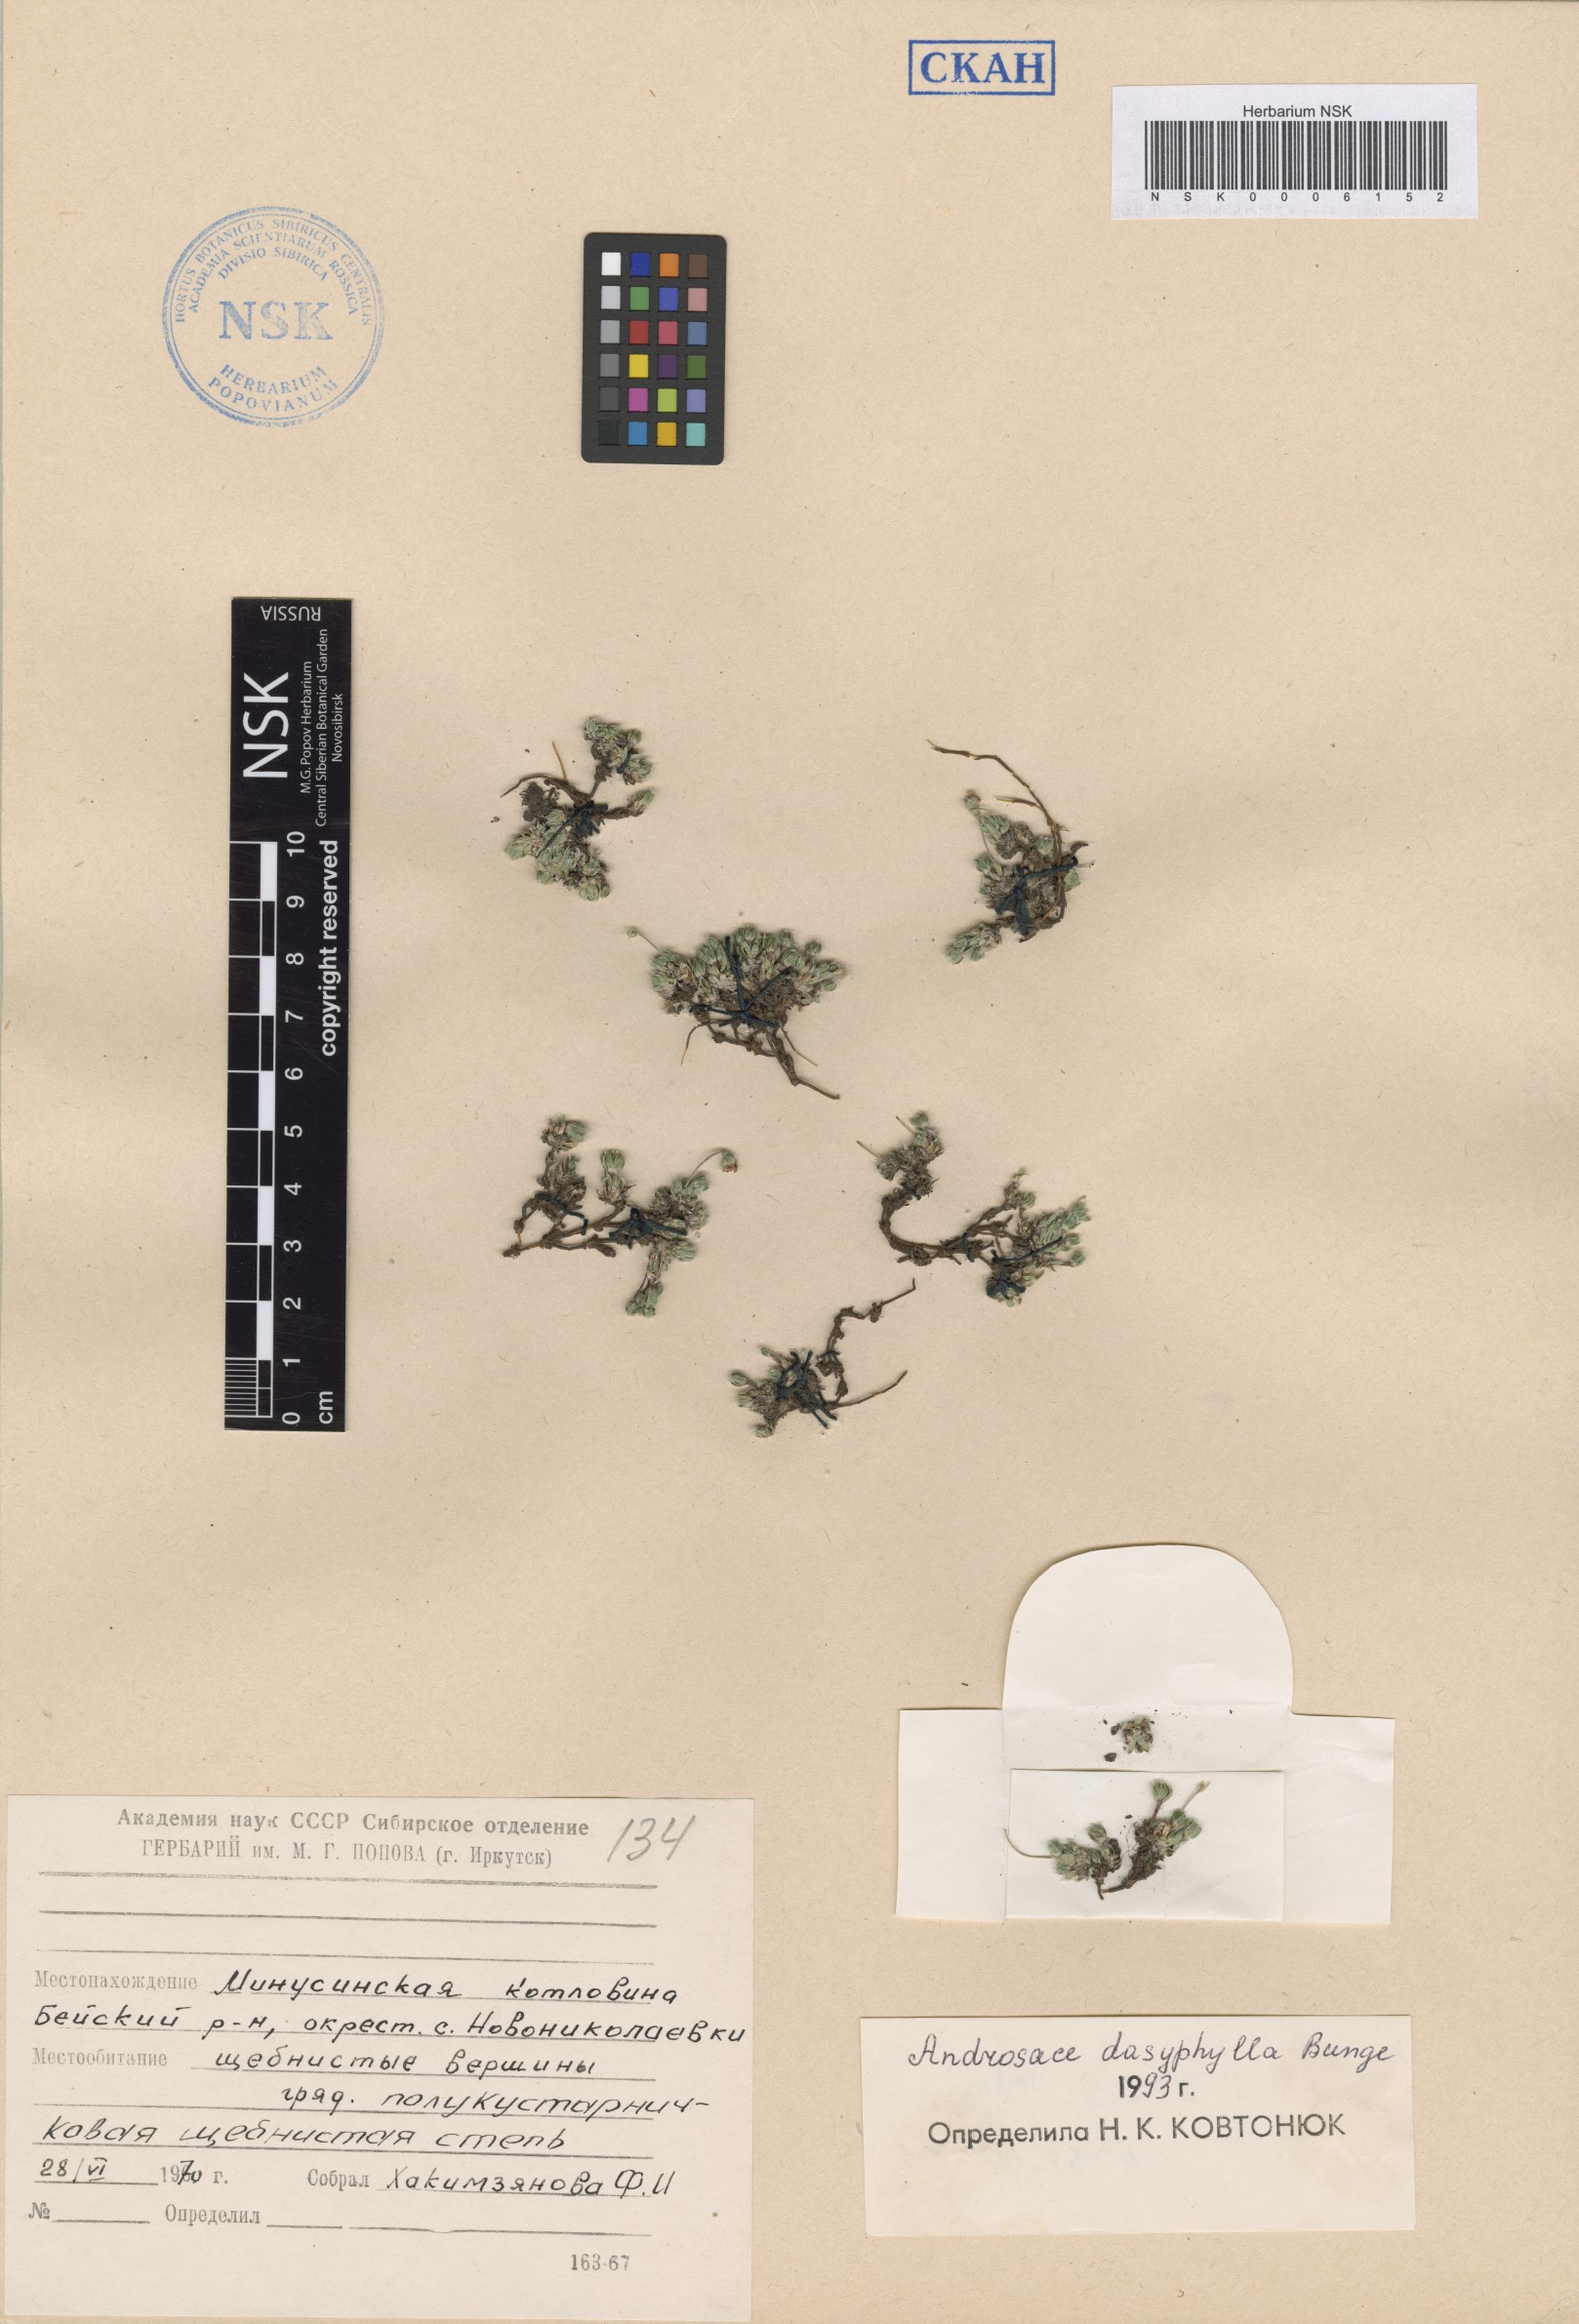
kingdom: Plantae
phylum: Tracheophyta
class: Magnoliopsida
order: Ericales
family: Primulaceae
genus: Androsace
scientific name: Androsace dasyphylla
